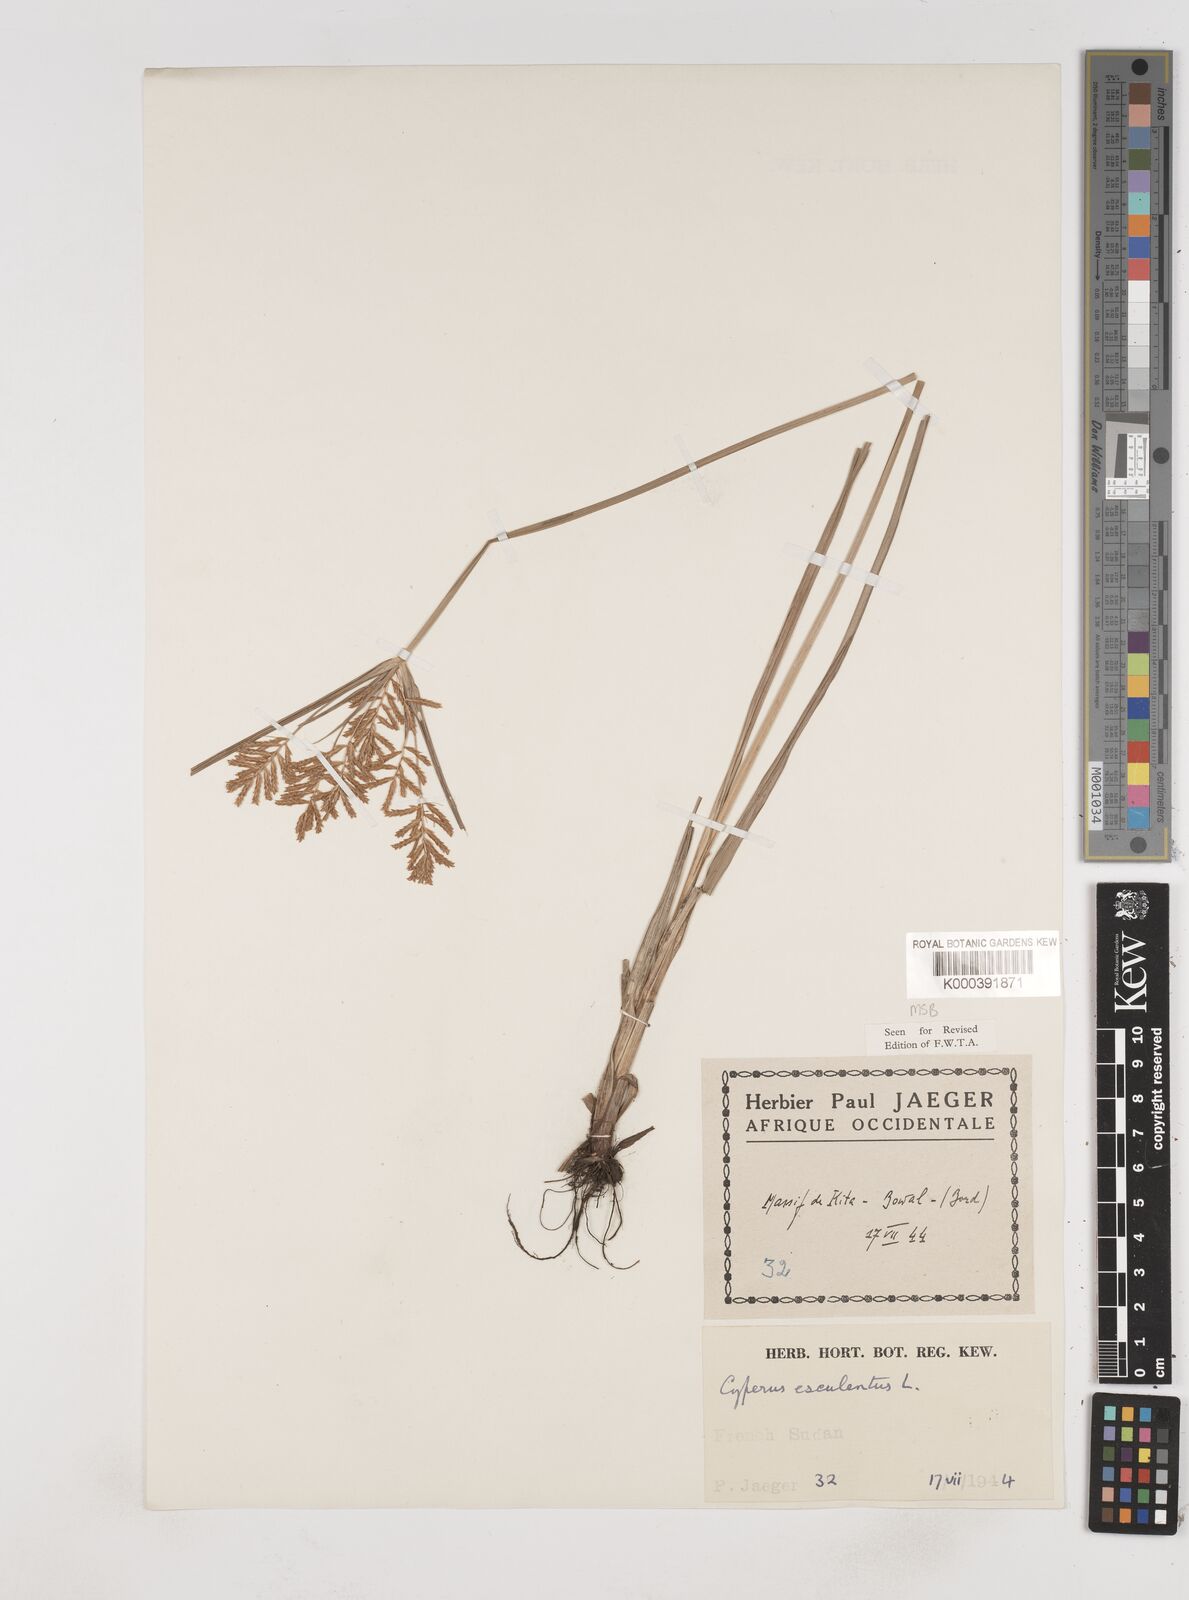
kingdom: Plantae
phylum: Tracheophyta
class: Liliopsida
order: Poales
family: Cyperaceae
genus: Cyperus
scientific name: Cyperus esculentus
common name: Yellow nutsedge
